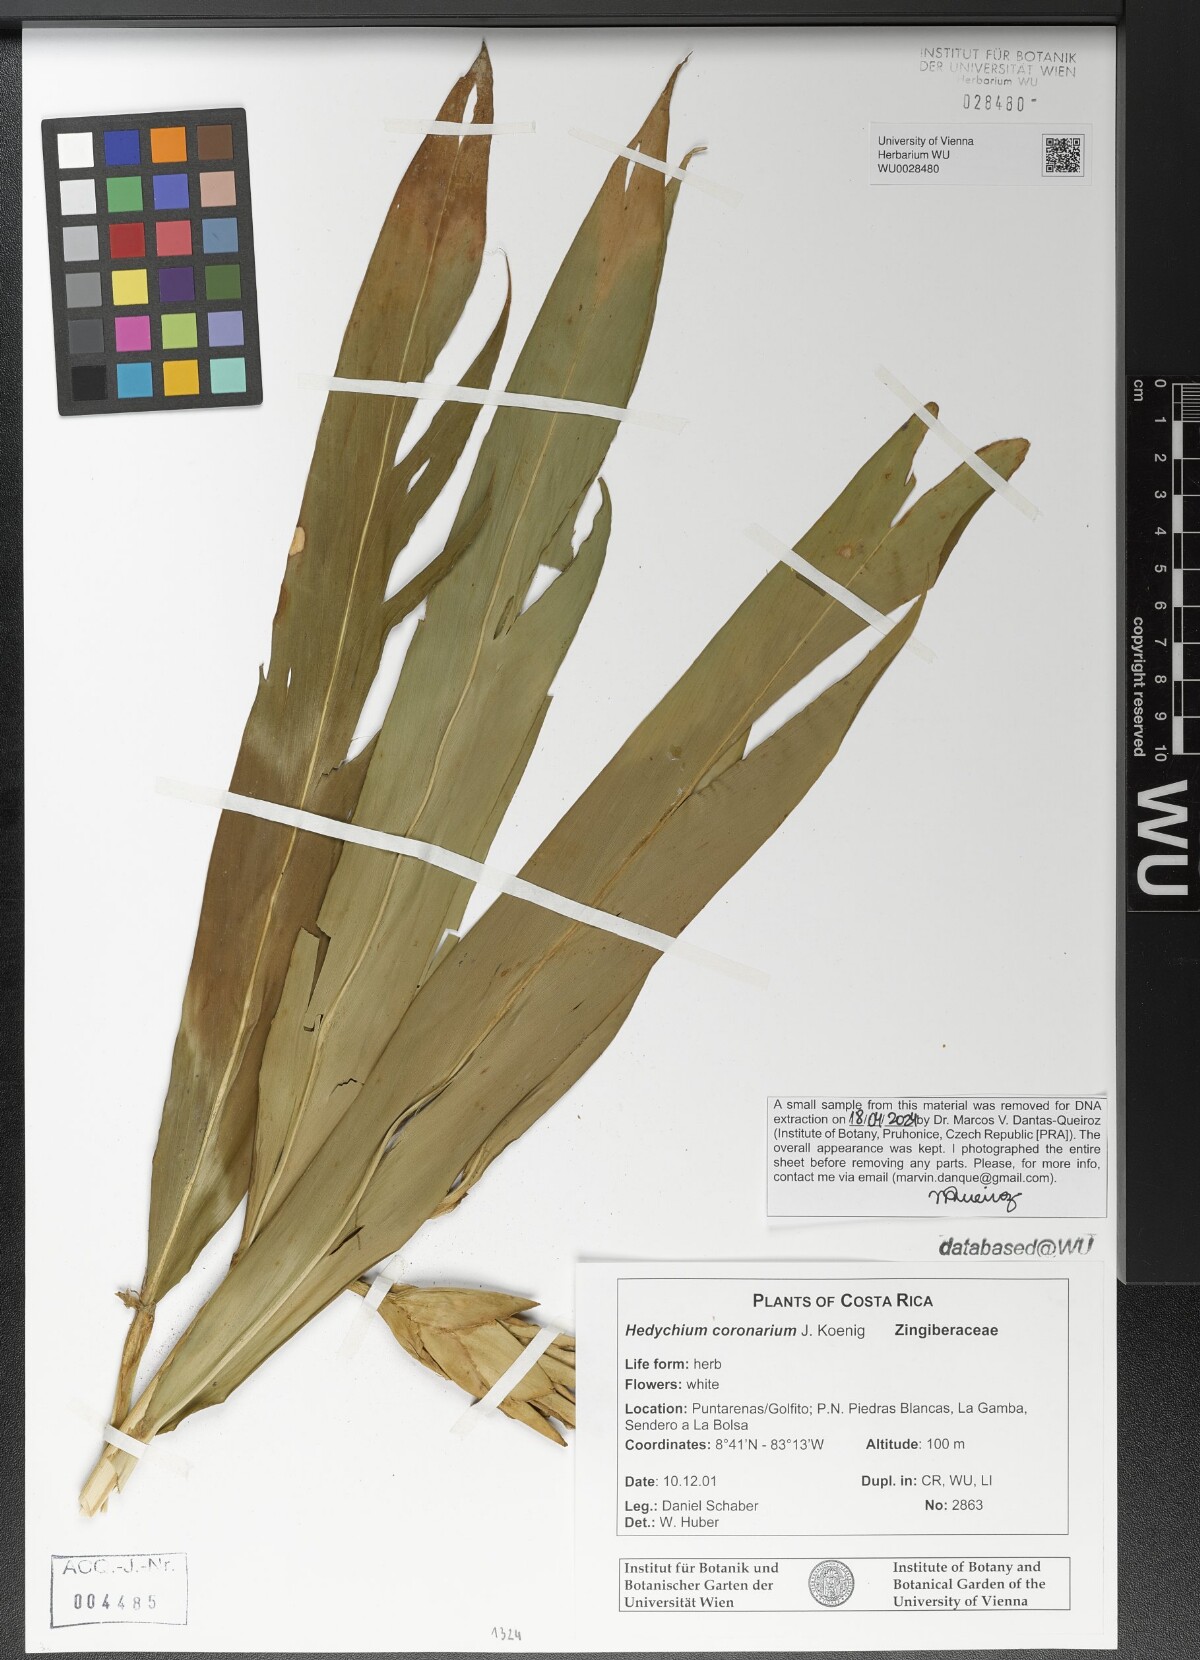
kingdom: Plantae
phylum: Tracheophyta
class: Liliopsida
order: Zingiberales
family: Zingiberaceae
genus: Hedychium
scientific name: Hedychium coronarium
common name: White garland-lily
